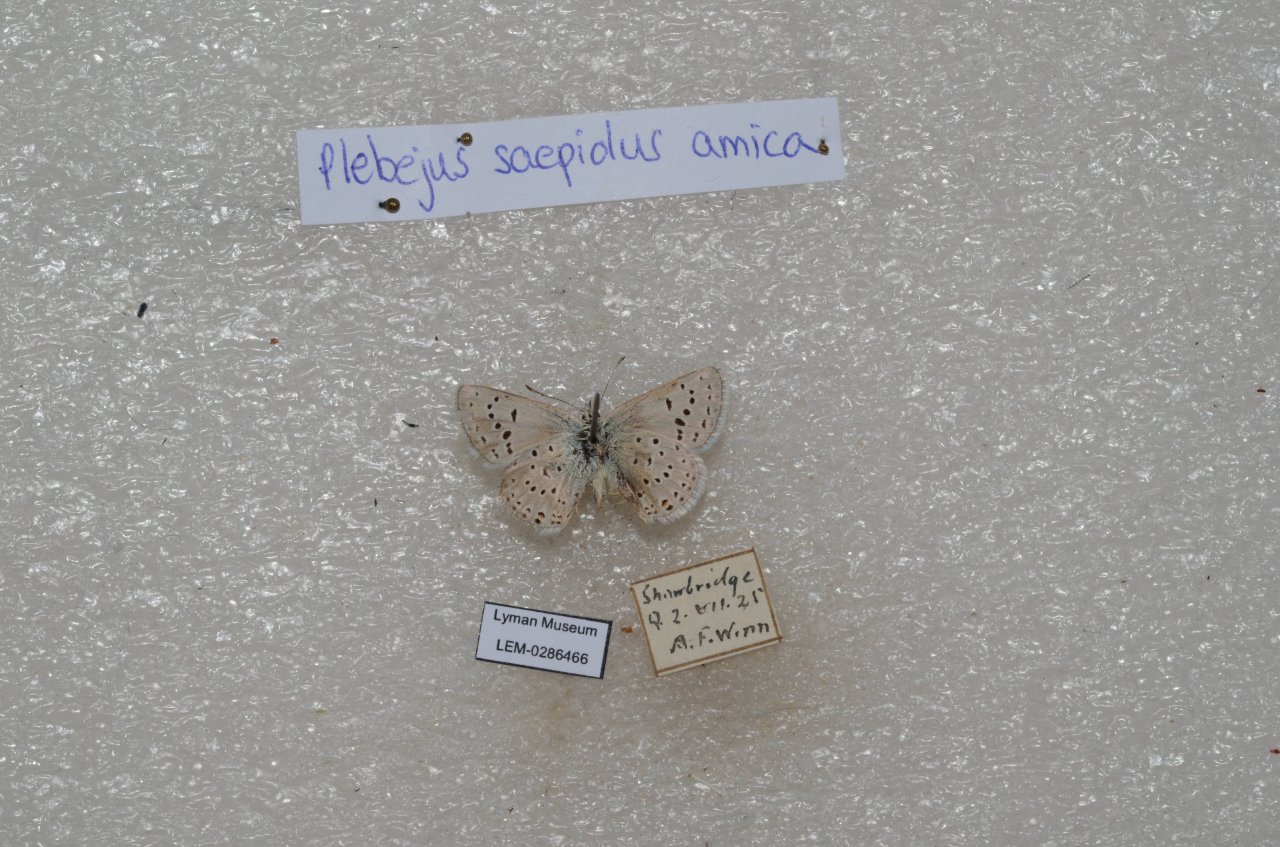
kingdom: Animalia
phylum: Arthropoda
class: Insecta
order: Lepidoptera
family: Lycaenidae
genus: Plebejus
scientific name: Plebejus saepiolus
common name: Greenish Blue
